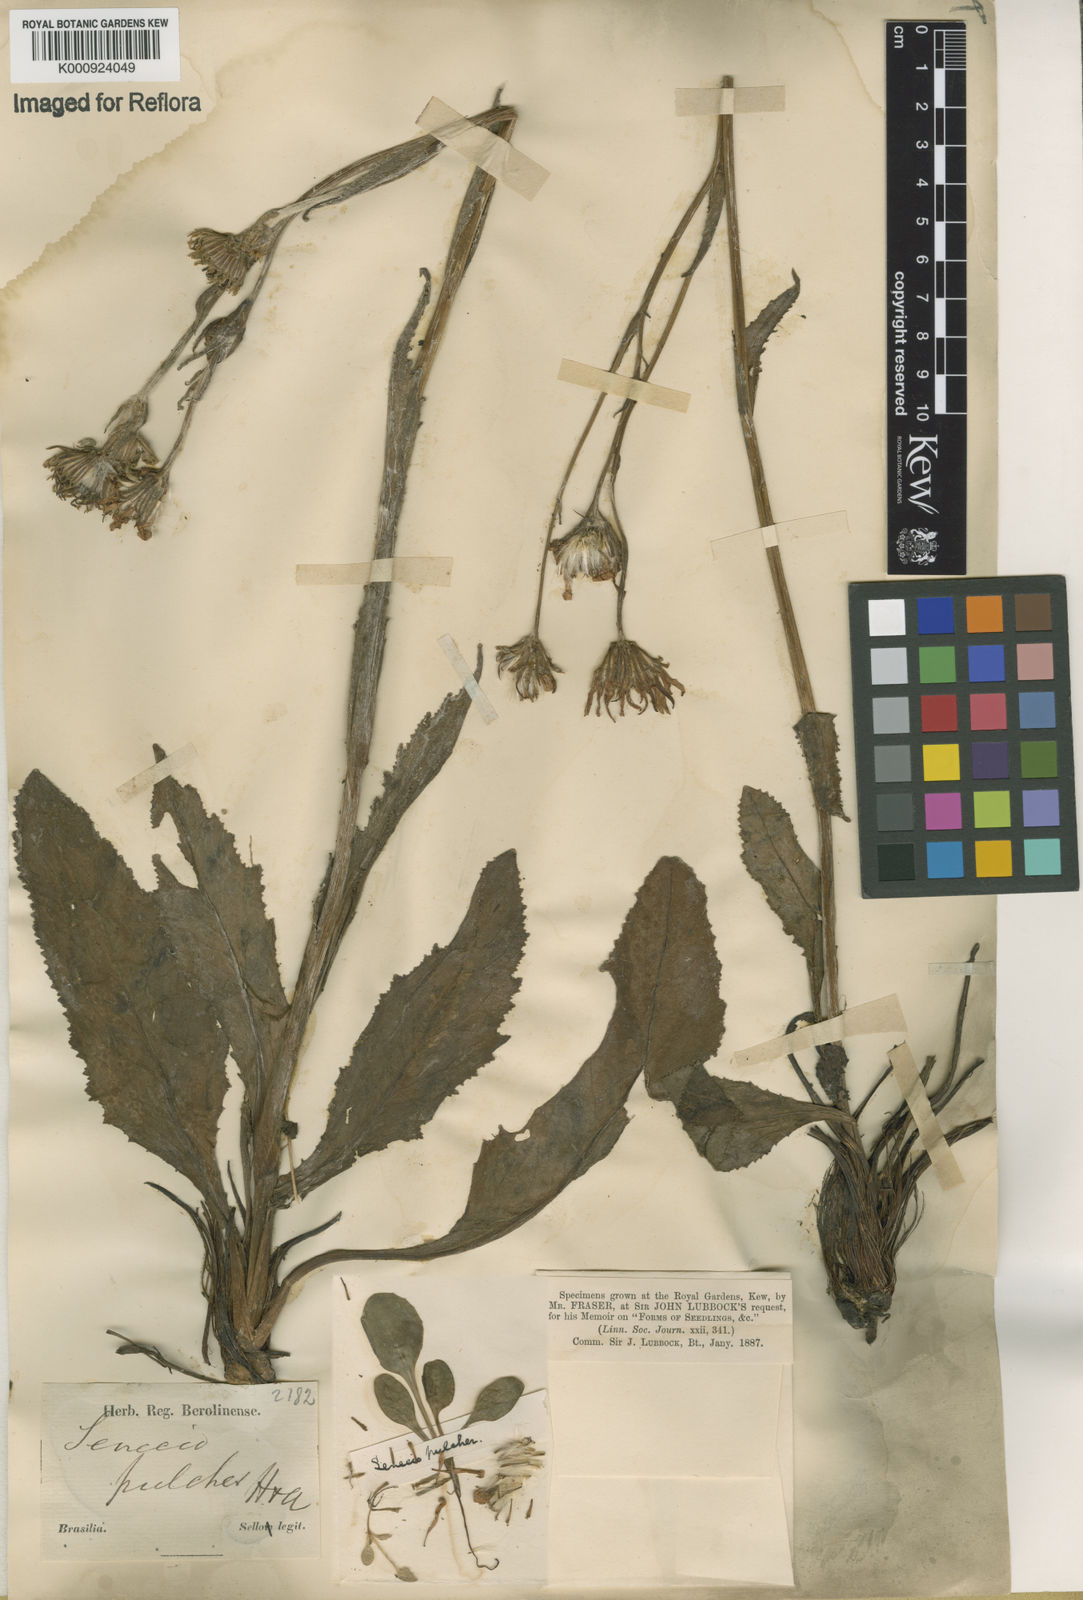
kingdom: Plantae
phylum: Tracheophyta
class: Magnoliopsida
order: Asterales
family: Asteraceae
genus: Senecio
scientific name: Senecio pulcher
